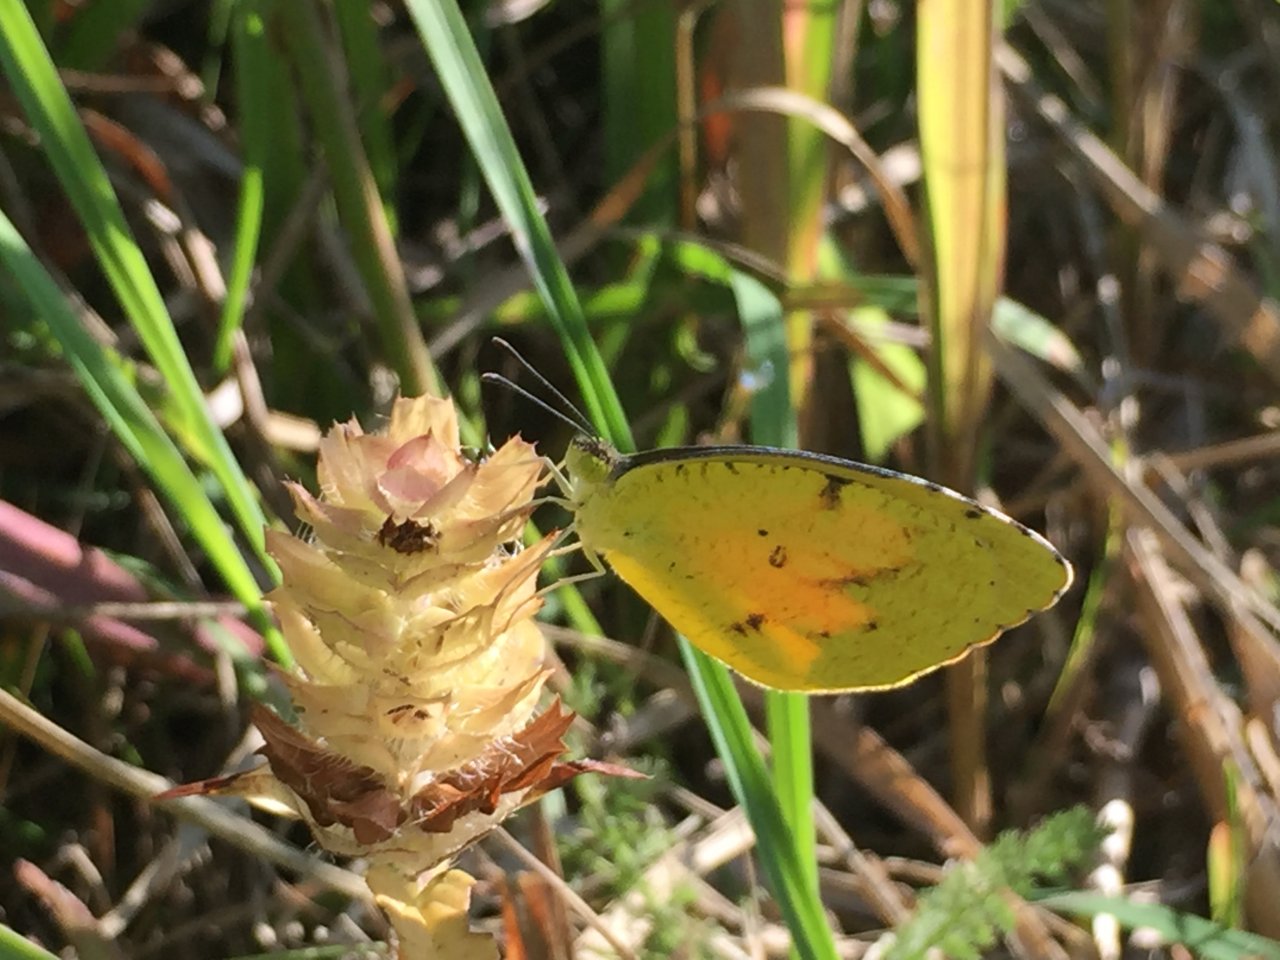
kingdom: Animalia
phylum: Arthropoda
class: Insecta
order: Lepidoptera
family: Pieridae
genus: Abaeis
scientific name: Abaeis nicippe
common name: Sleepy Orange
